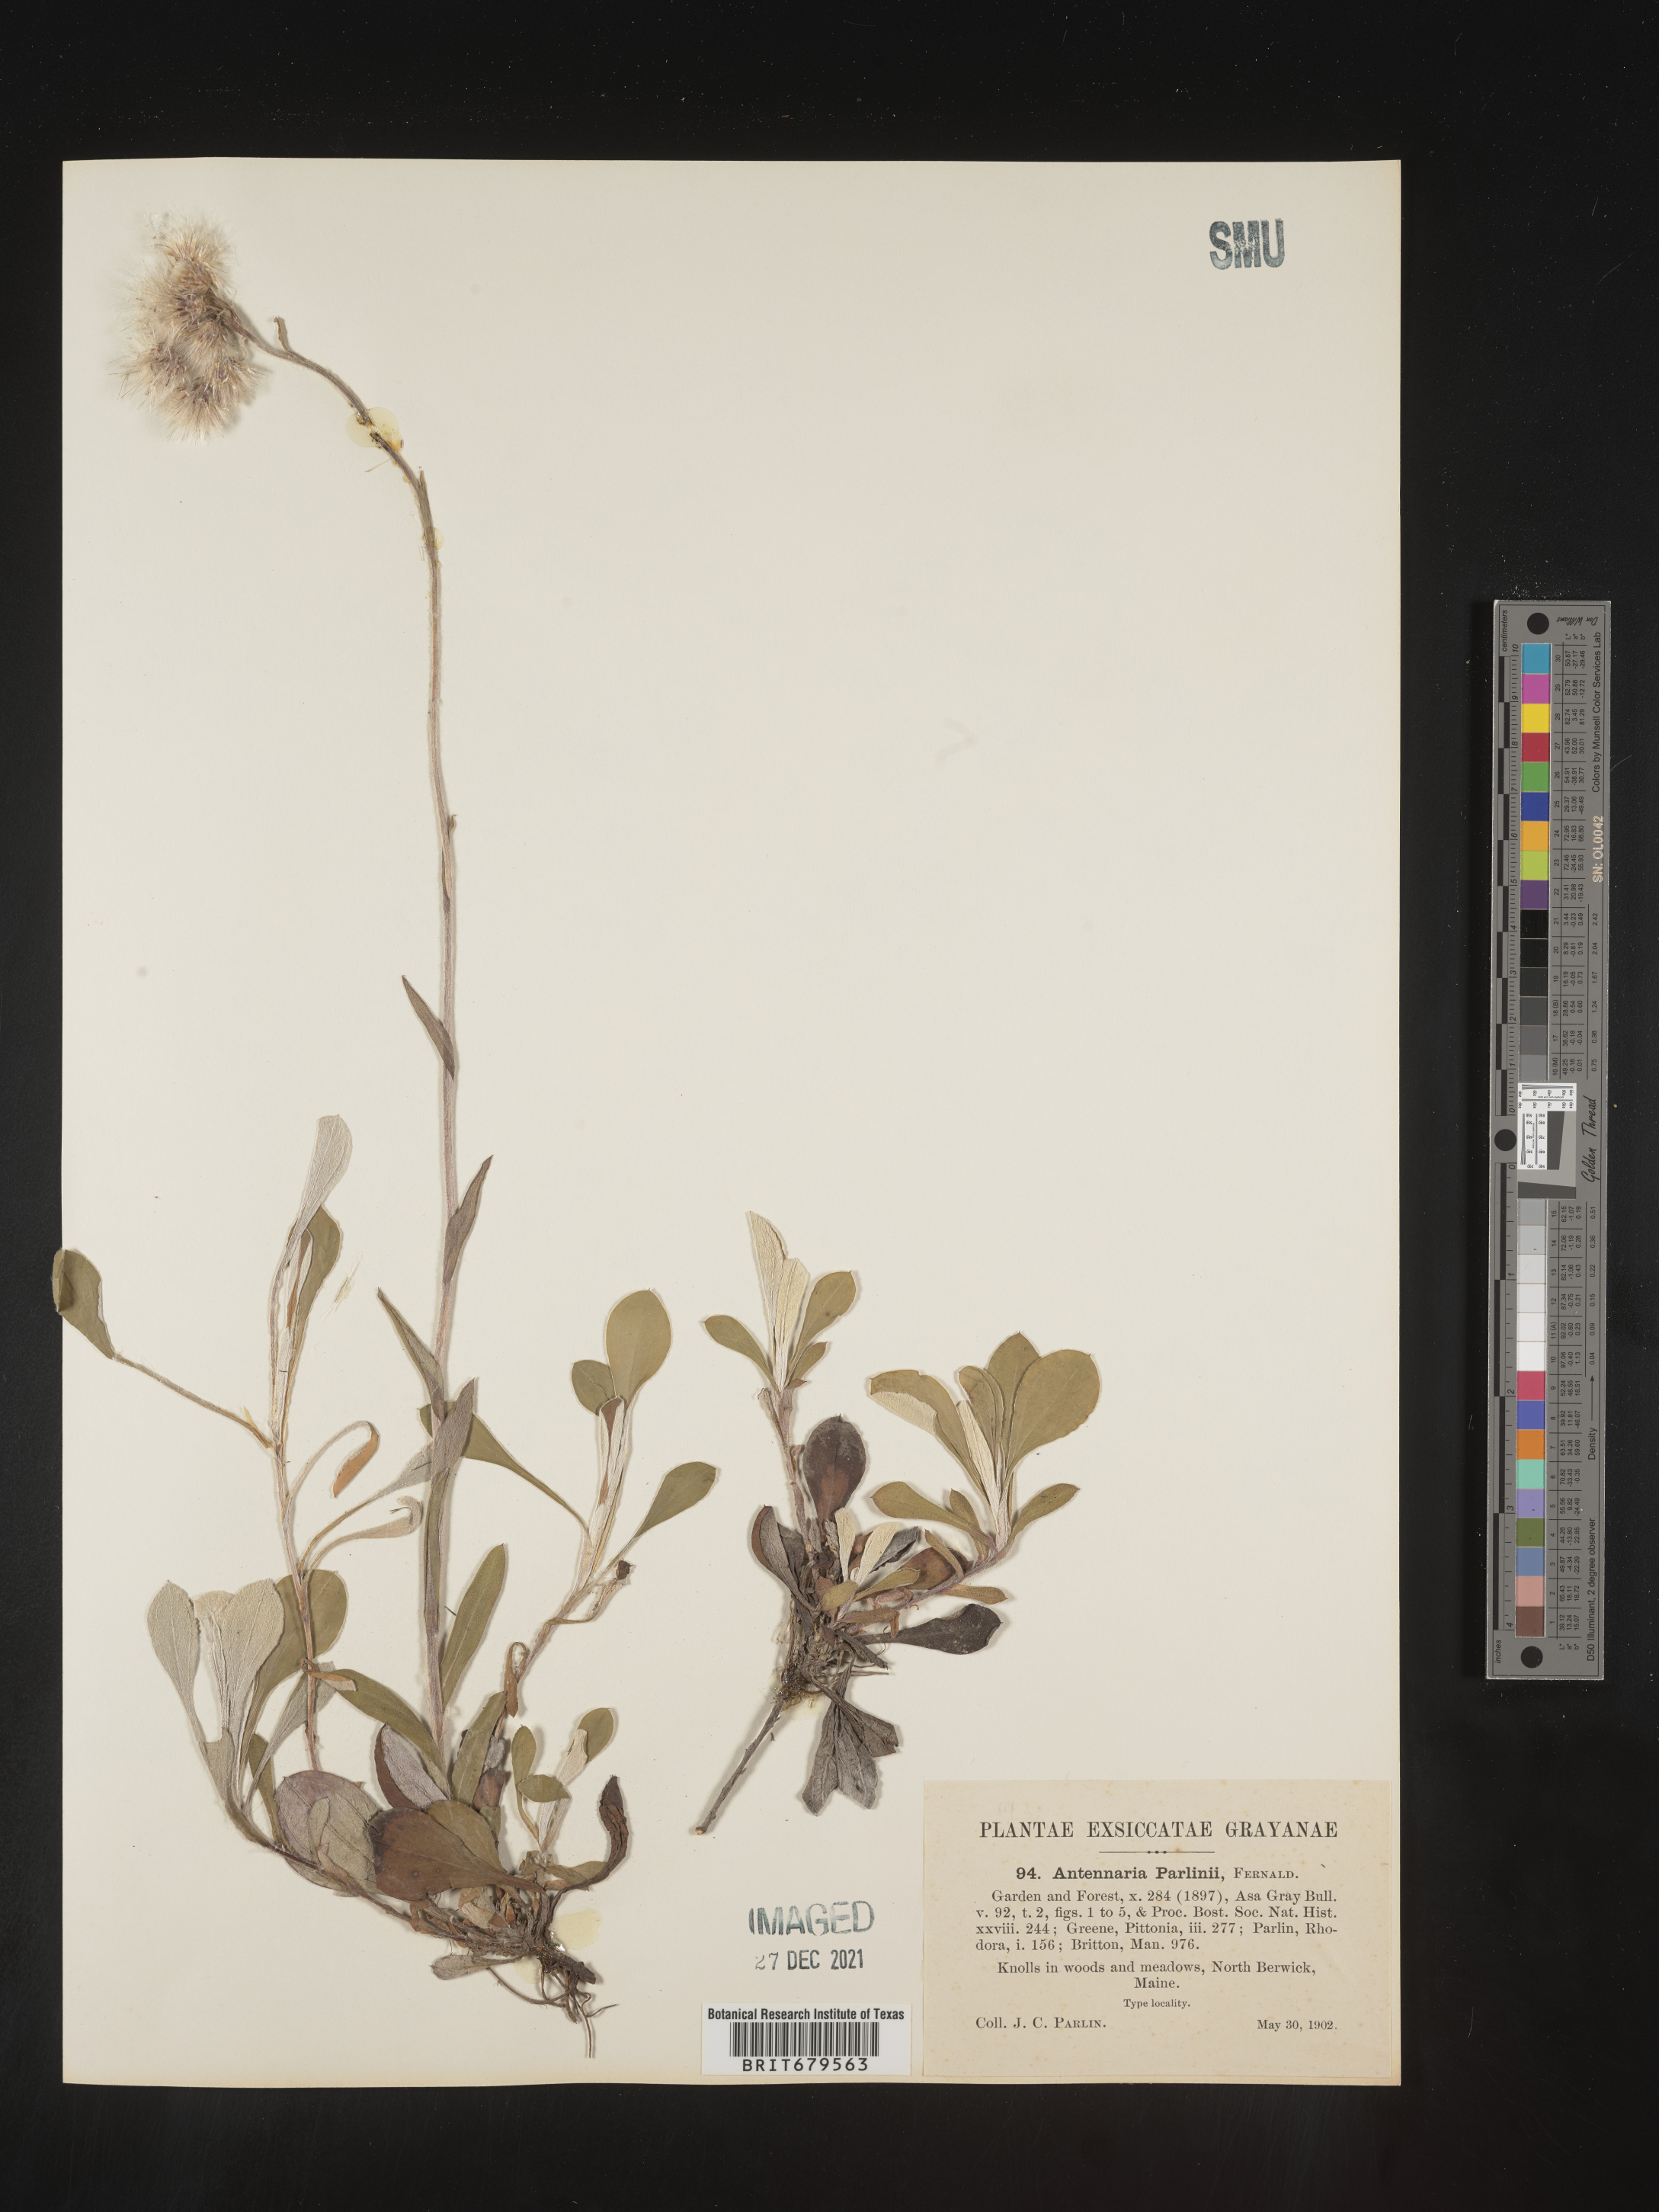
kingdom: Plantae
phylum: Tracheophyta
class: Magnoliopsida
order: Asterales
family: Asteraceae
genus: Antennaria
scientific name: Antennaria parlinii
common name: Parlin's pussytoes
